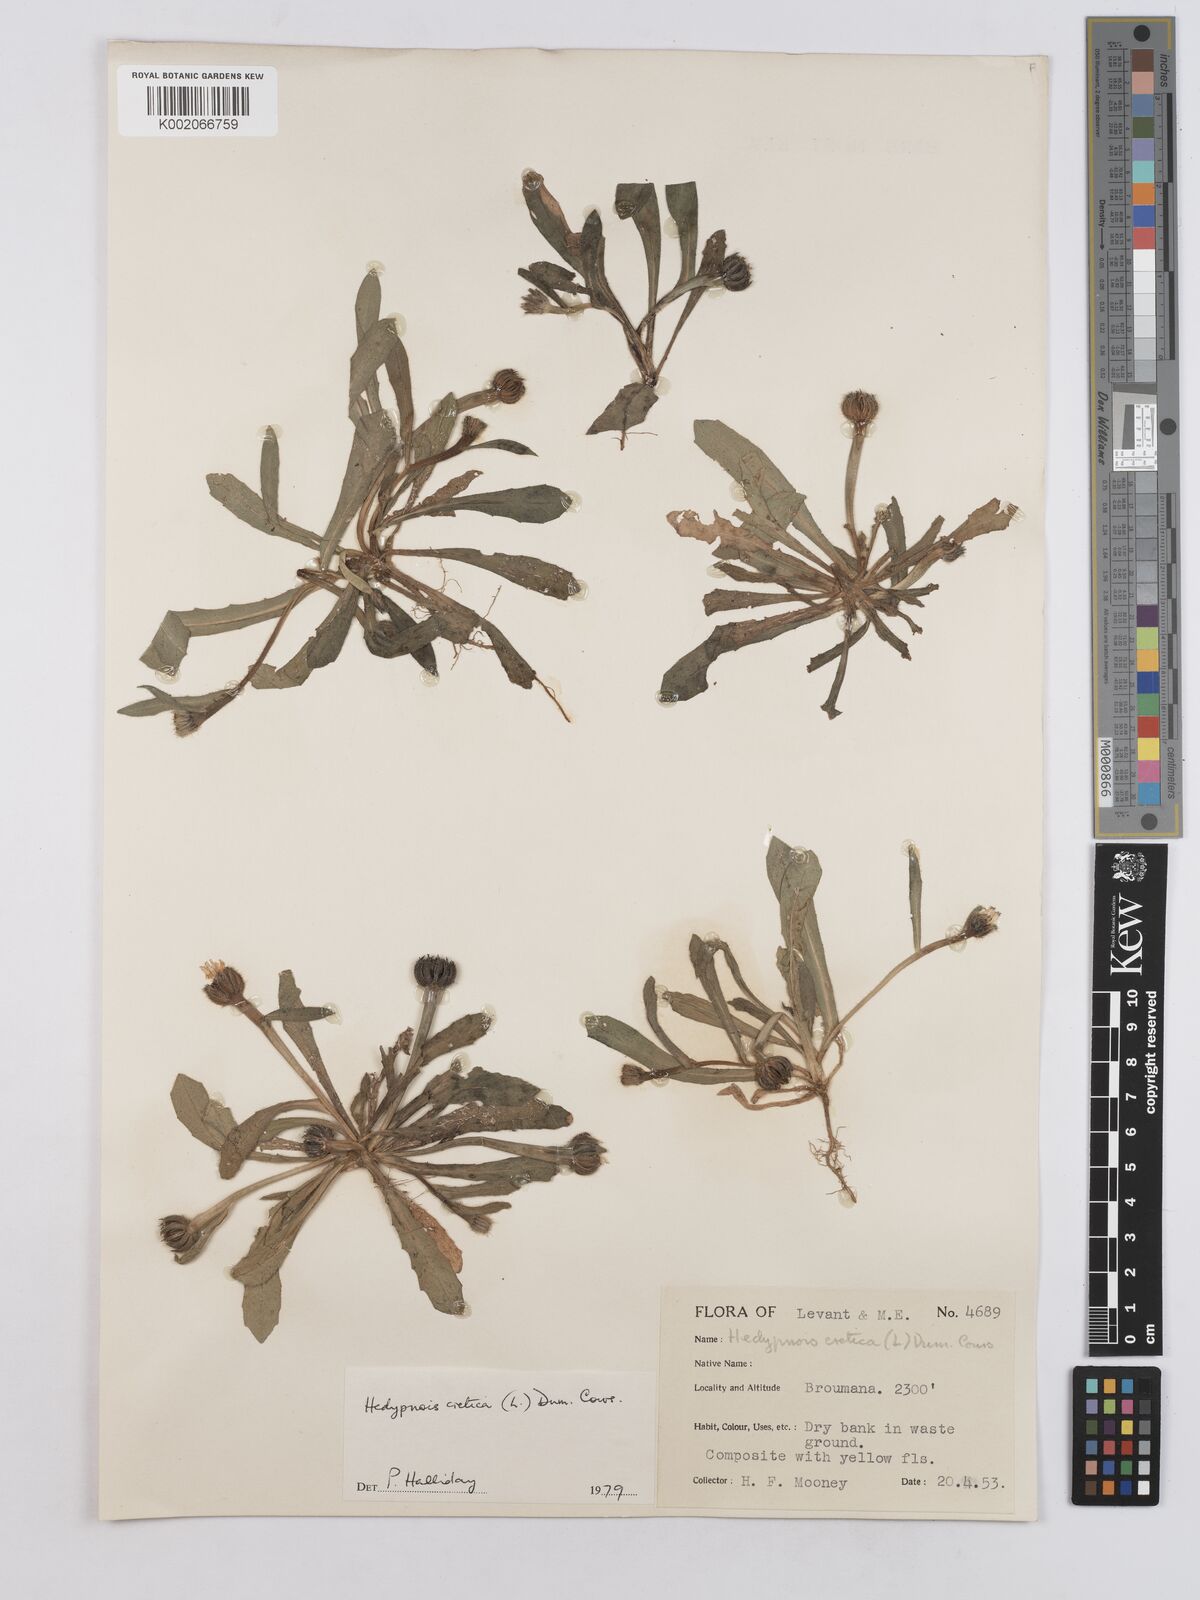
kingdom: Plantae
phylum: Tracheophyta
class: Magnoliopsida
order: Asterales
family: Asteraceae
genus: Hedypnois
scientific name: Hedypnois cretica
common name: Scaly hawkbit
